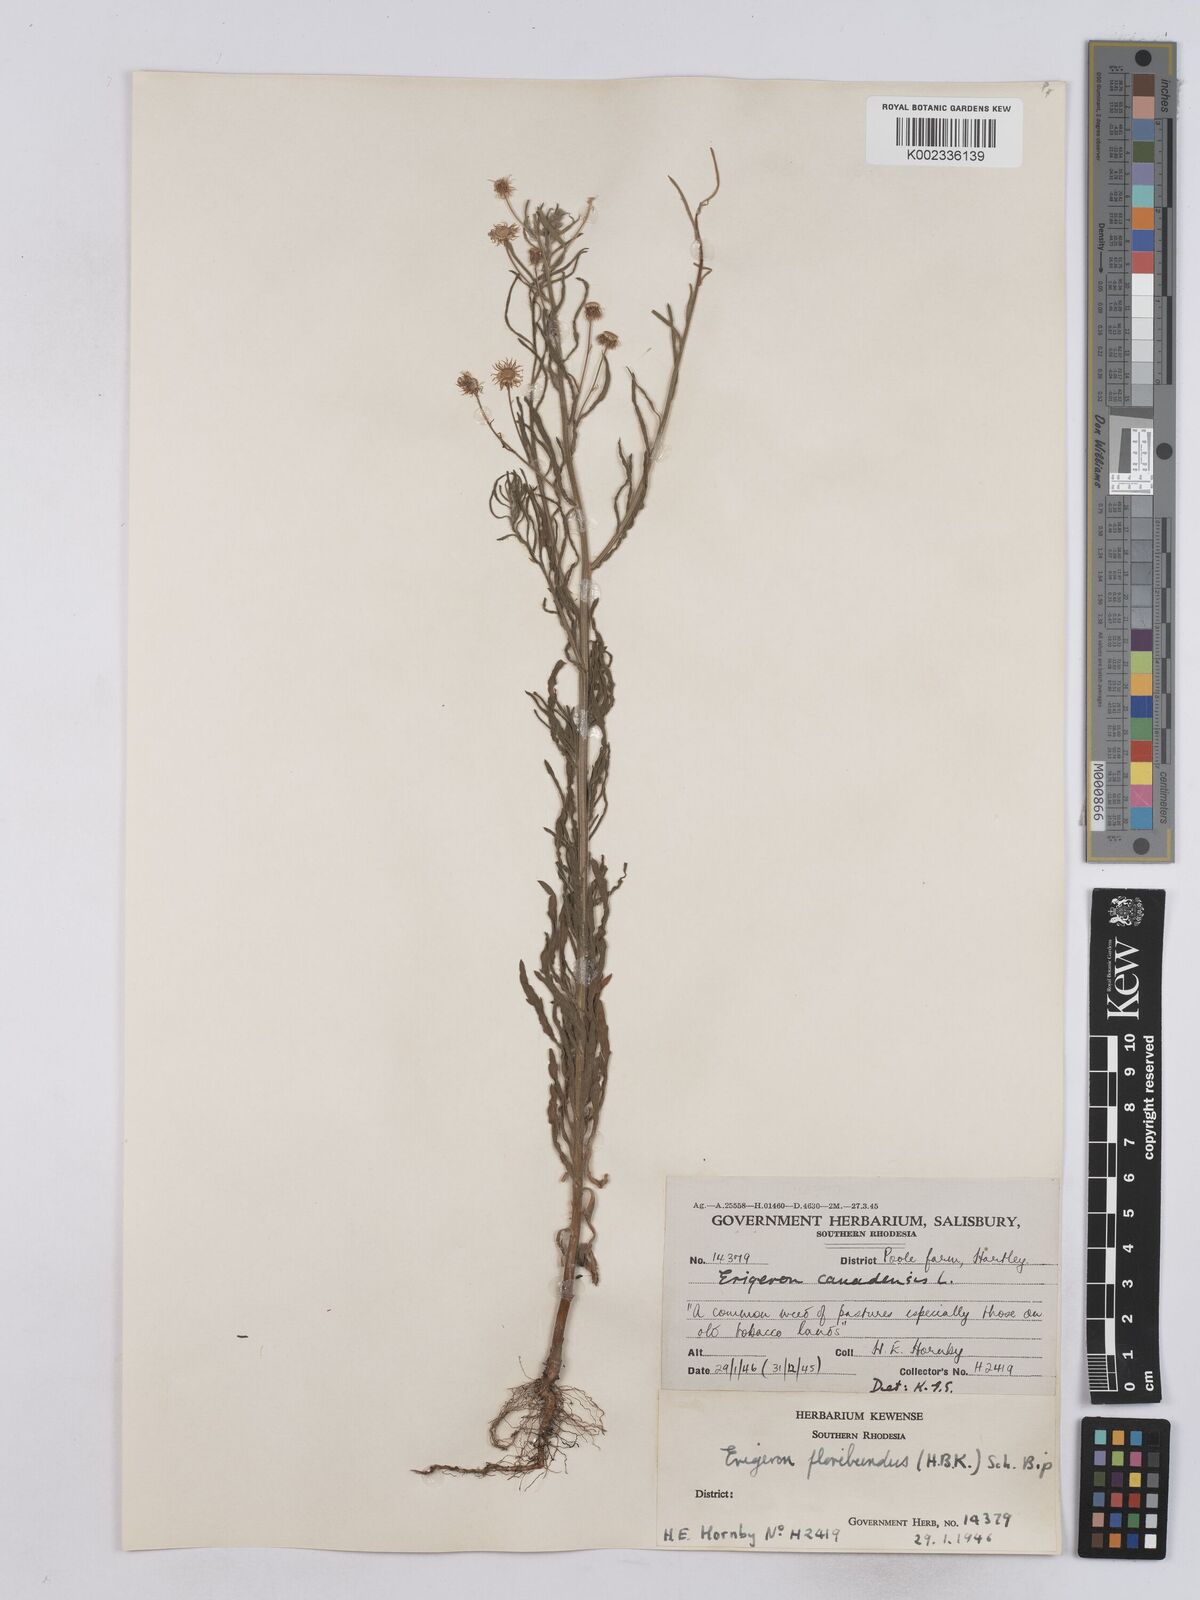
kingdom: Plantae
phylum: Tracheophyta
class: Magnoliopsida
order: Asterales
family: Asteraceae
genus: Erigeron
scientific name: Erigeron floribundus
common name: Bilbao fleabane
